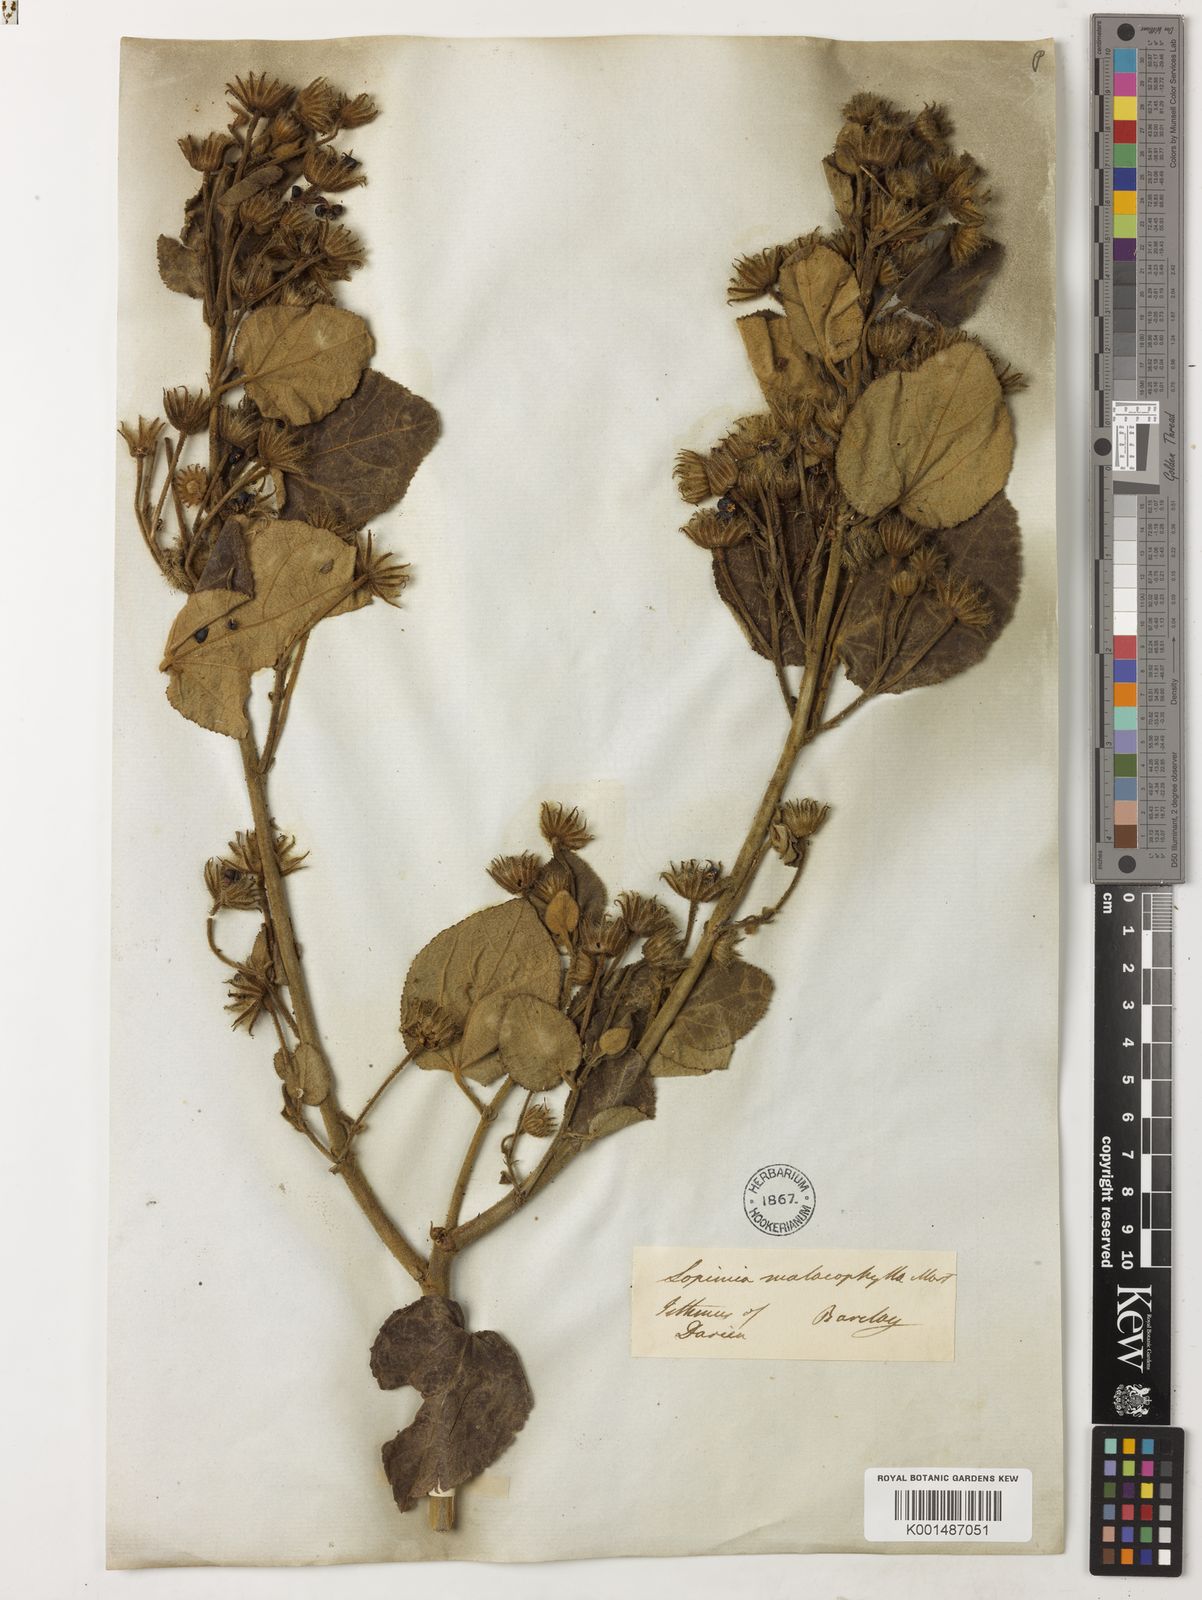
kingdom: Plantae
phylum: Tracheophyta
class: Magnoliopsida
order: Malvales
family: Malvaceae
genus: Pavonia
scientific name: Pavonia malacophylla
